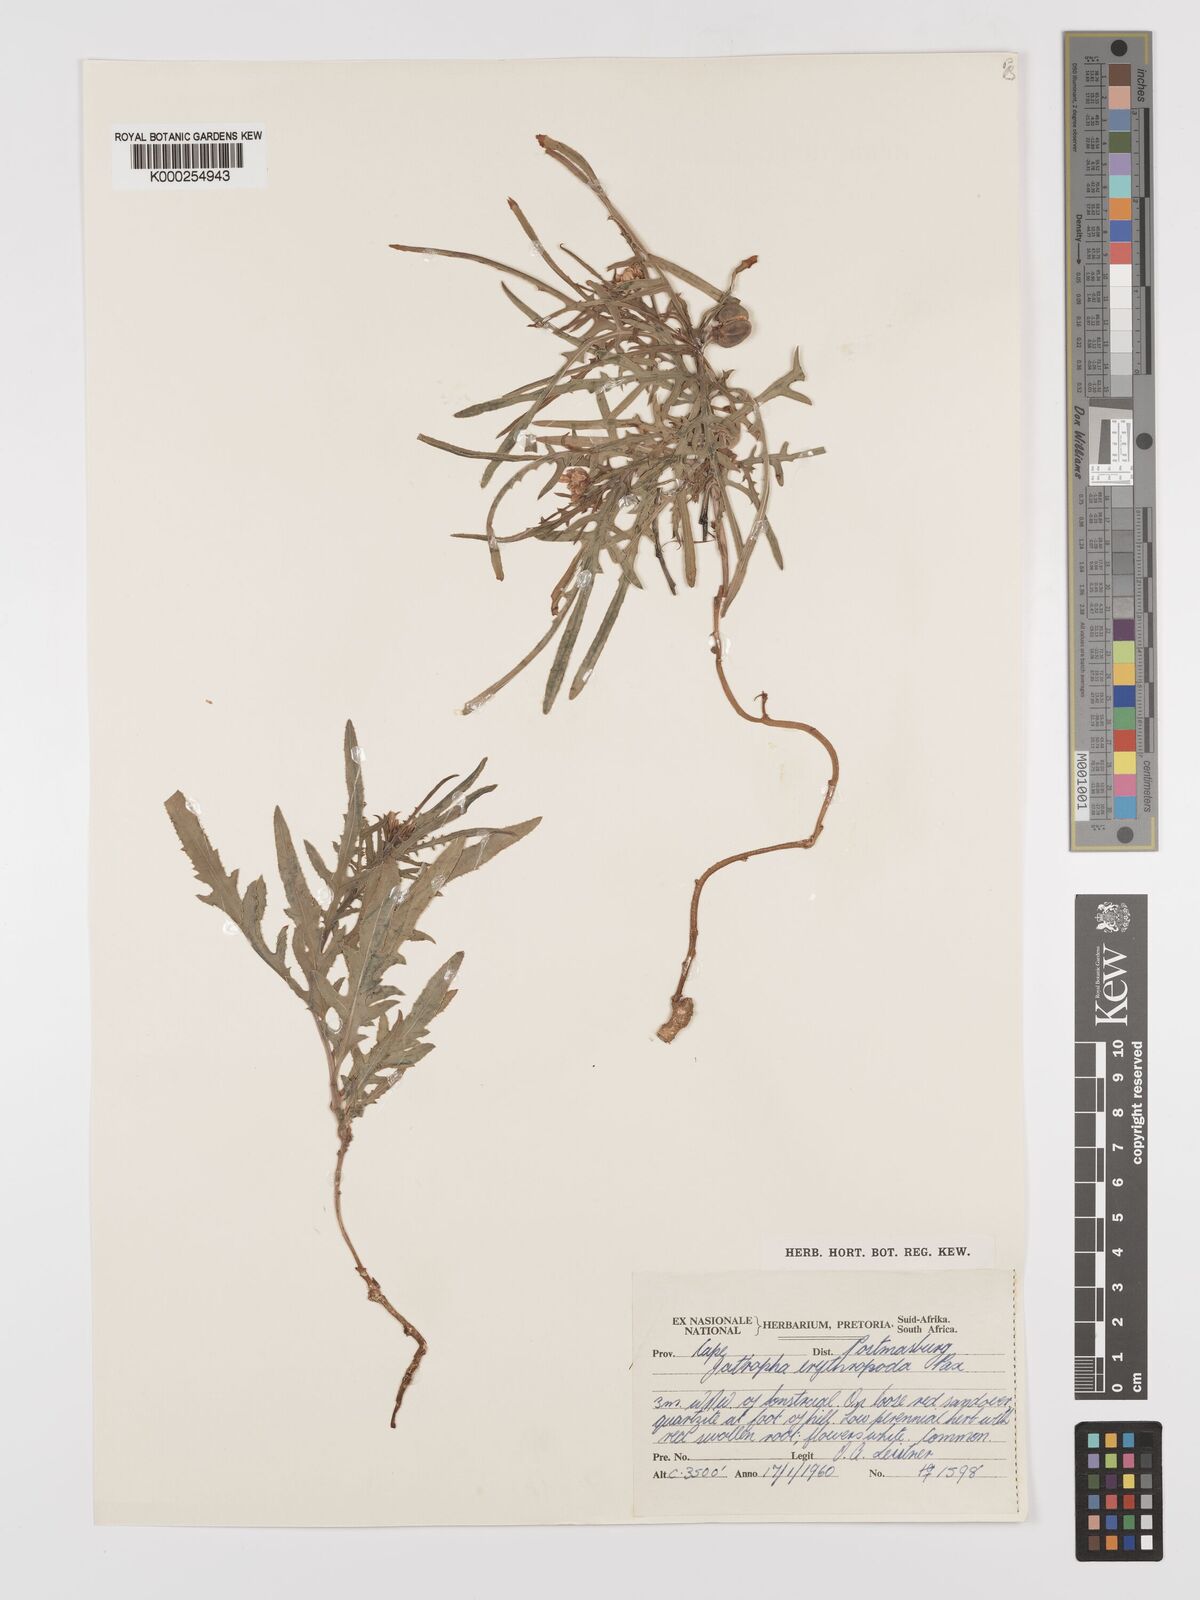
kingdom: Plantae
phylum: Tracheophyta
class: Magnoliopsida
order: Malpighiales
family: Euphorbiaceae
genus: Jatropha
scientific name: Jatropha erythropoda
